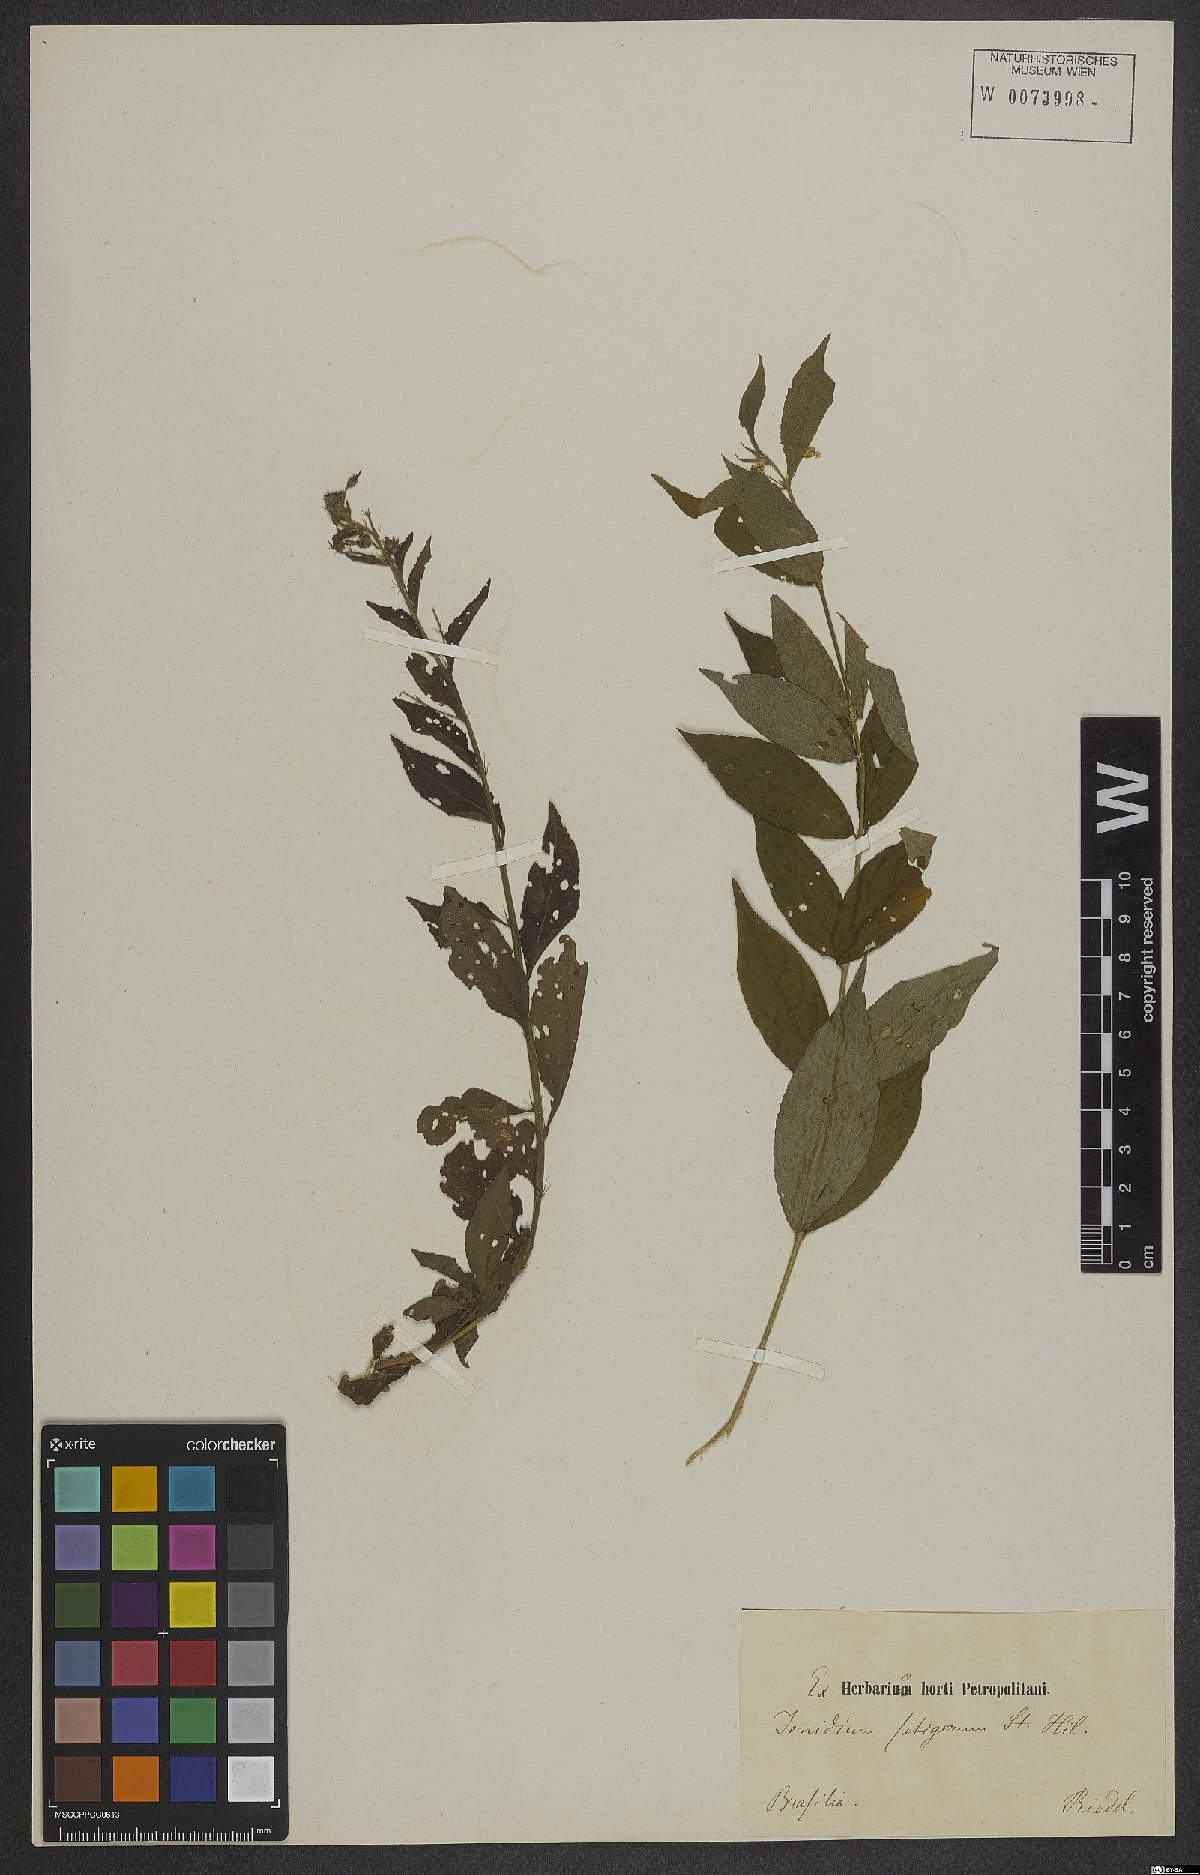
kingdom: Plantae
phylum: Tracheophyta
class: Magnoliopsida
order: Malpighiales
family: Violaceae
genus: Pombalia
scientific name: Pombalia setigera
